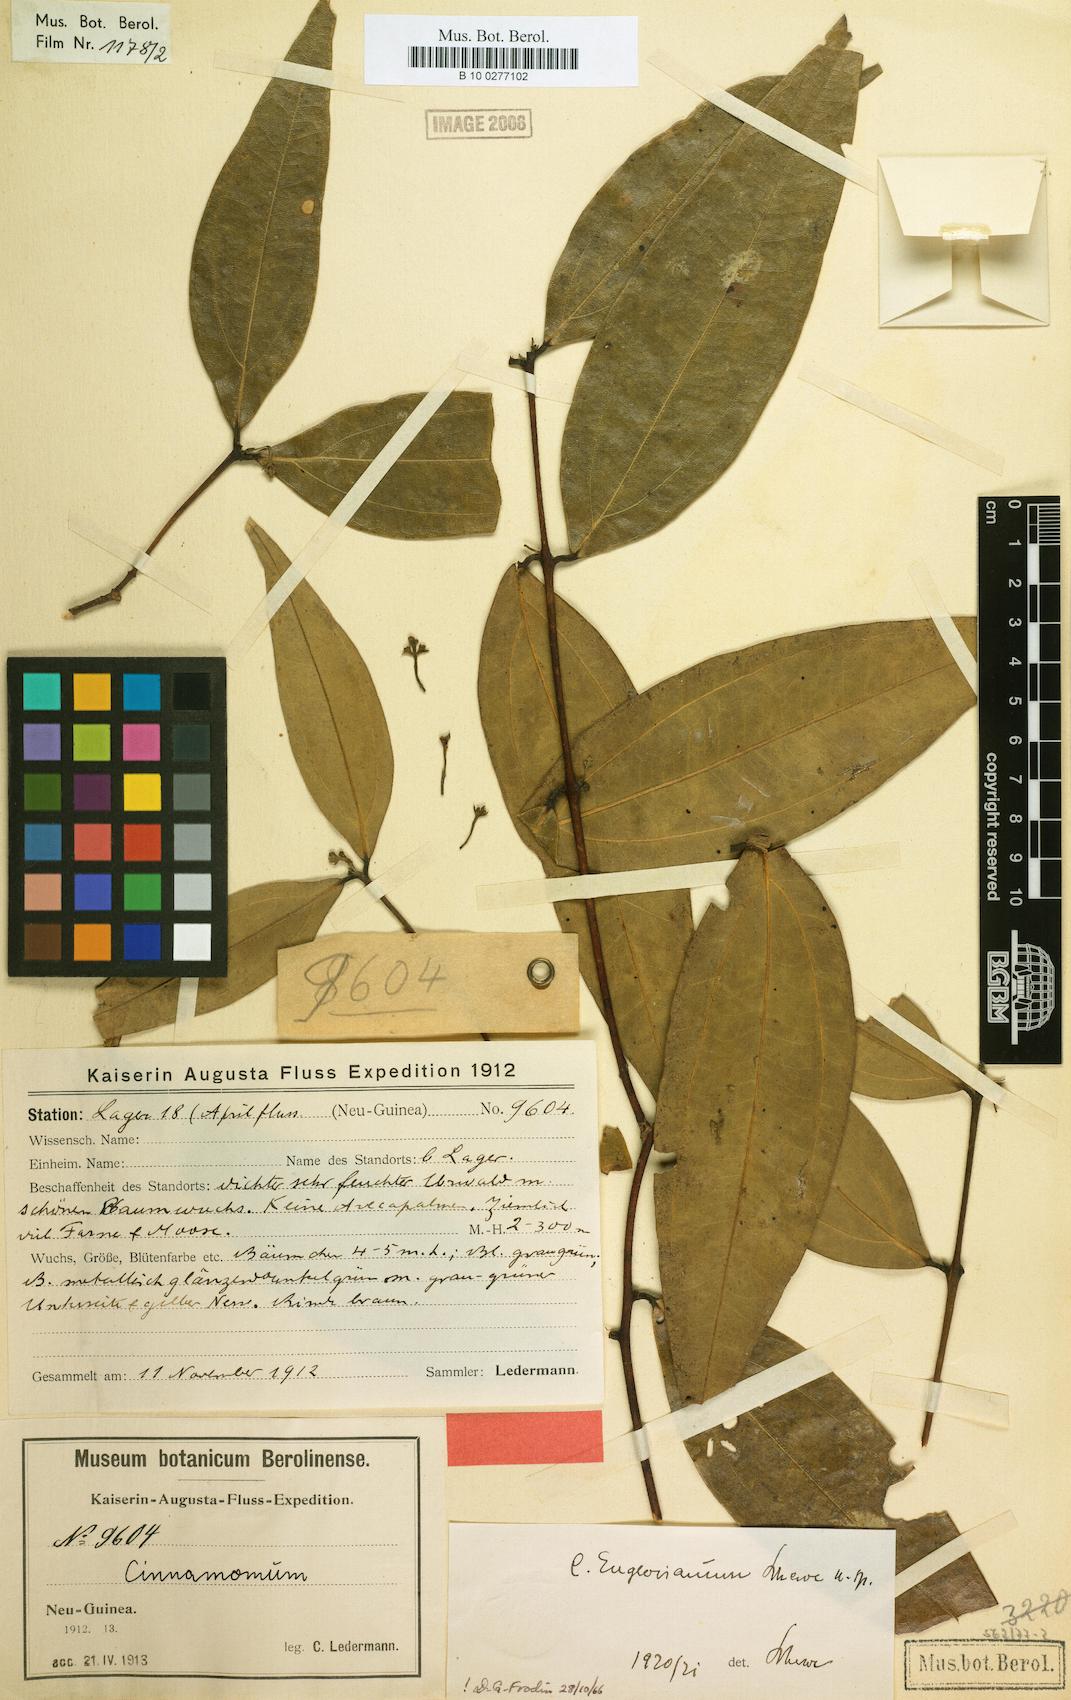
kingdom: Plantae
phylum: Tracheophyta
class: Magnoliopsida
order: Laurales
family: Lauraceae
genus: Cinnamomum
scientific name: Cinnamomum englerianum
